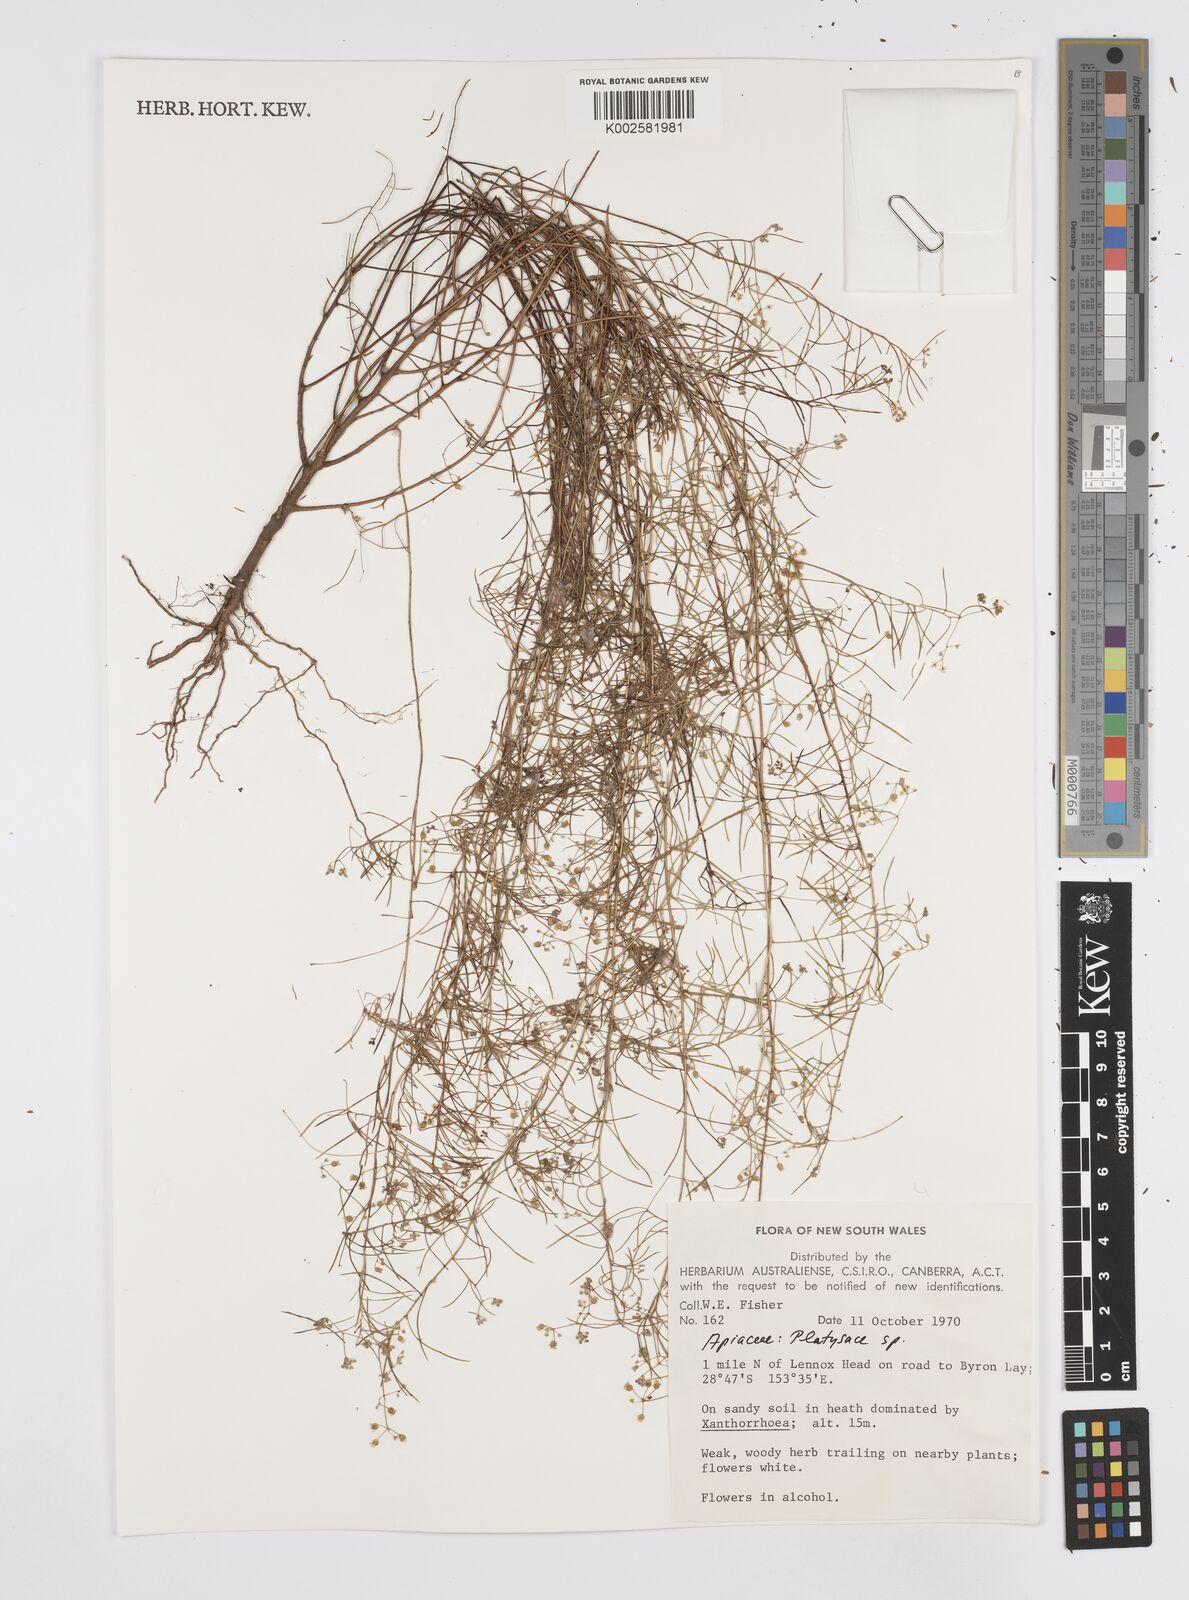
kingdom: Plantae
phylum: Tracheophyta
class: Magnoliopsida
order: Apiales
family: Apiaceae
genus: Platysace
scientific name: Platysace
